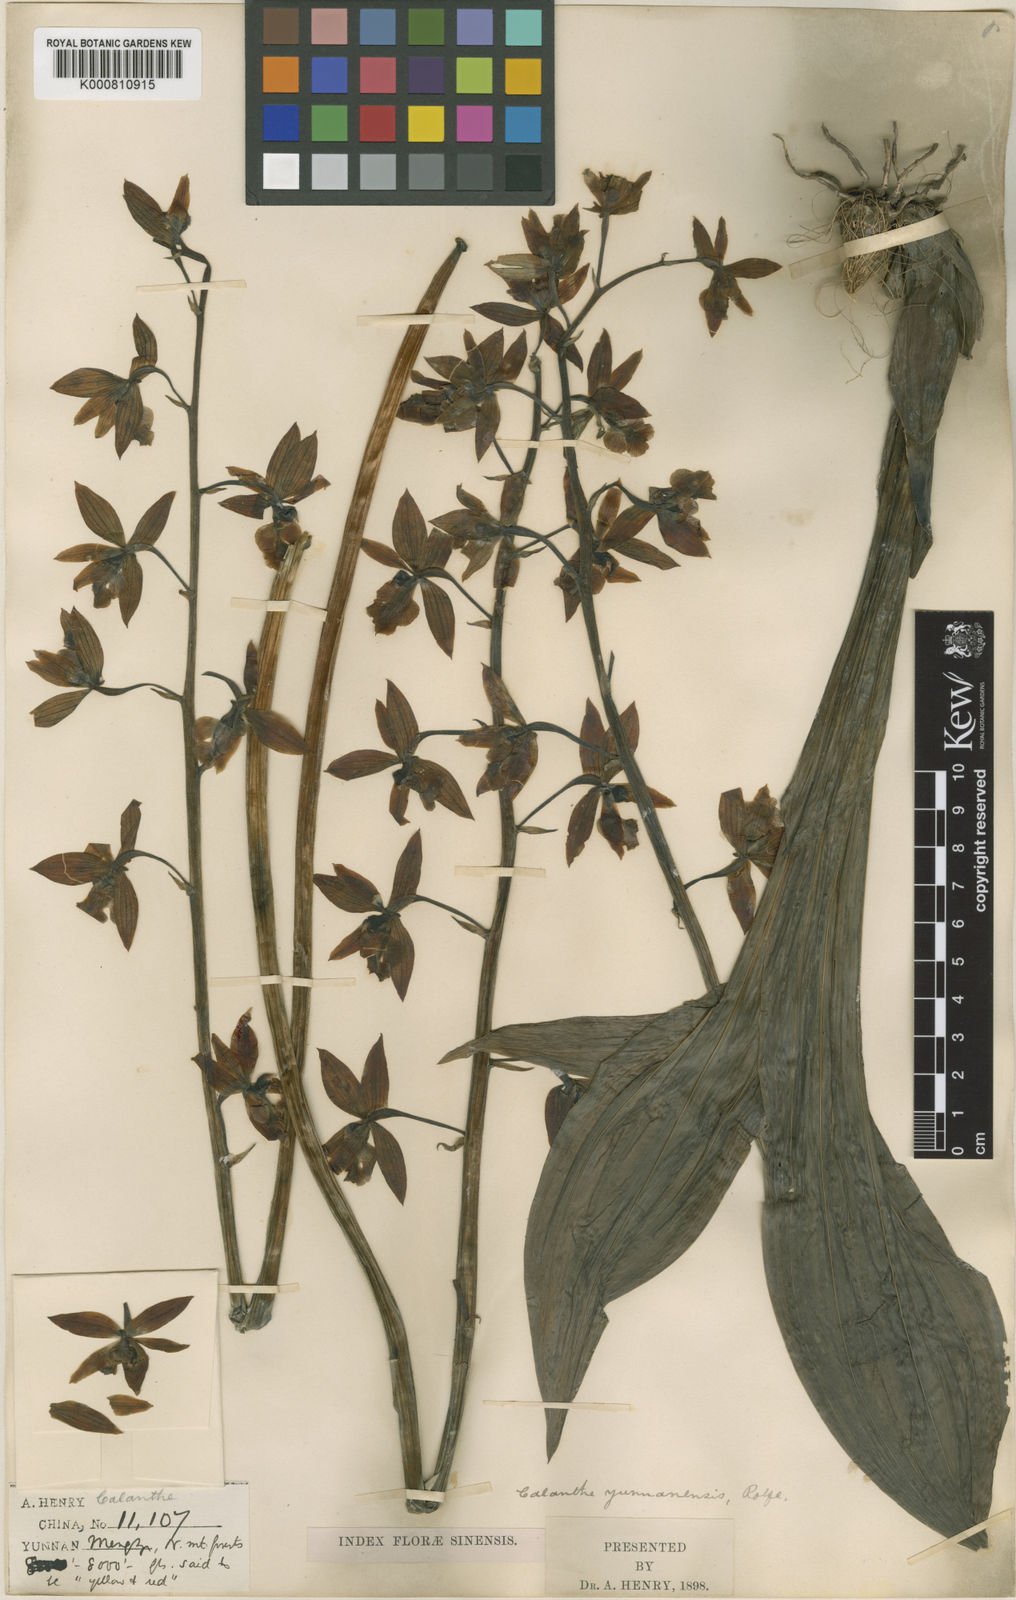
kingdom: Plantae
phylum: Tracheophyta
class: Liliopsida
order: Asparagales
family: Orchidaceae
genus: Calanthe
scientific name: Calanthe lamellosa
